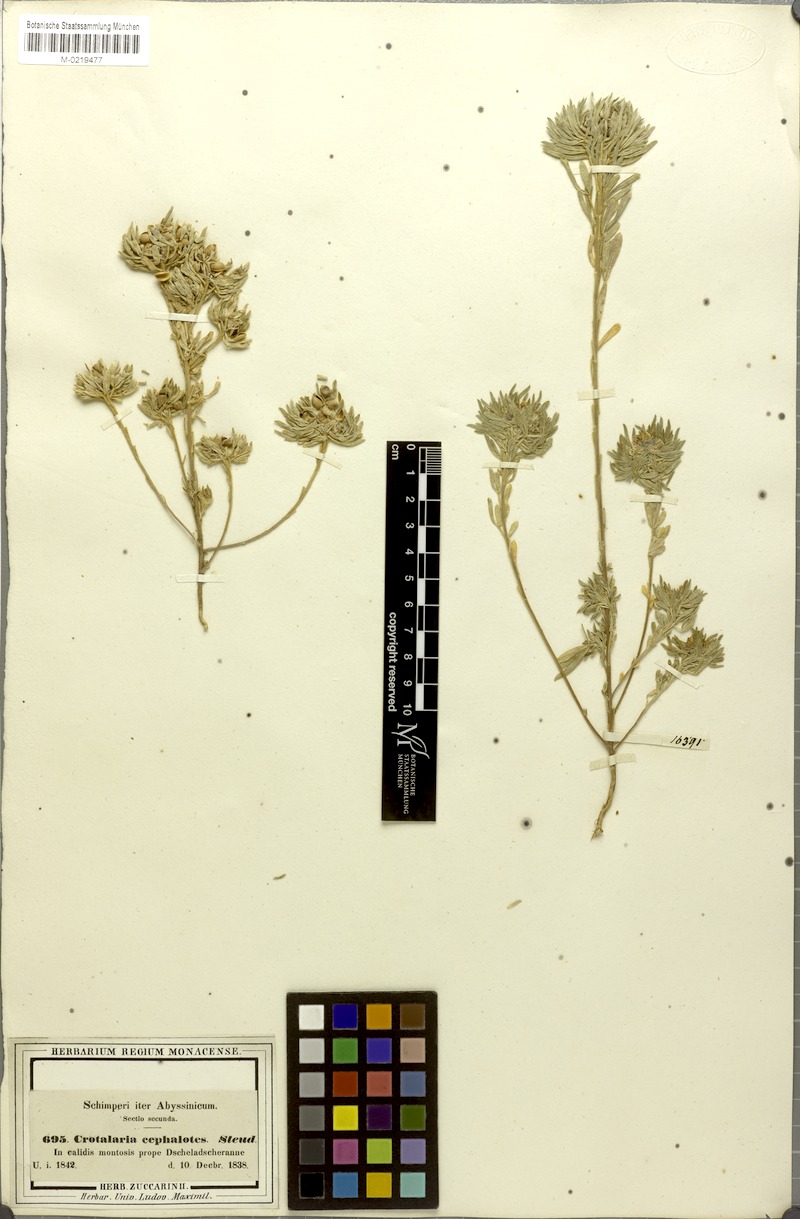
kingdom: Plantae
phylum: Tracheophyta
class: Magnoliopsida
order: Fabales
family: Fabaceae
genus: Crotalaria
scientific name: Crotalaria cephalotes
